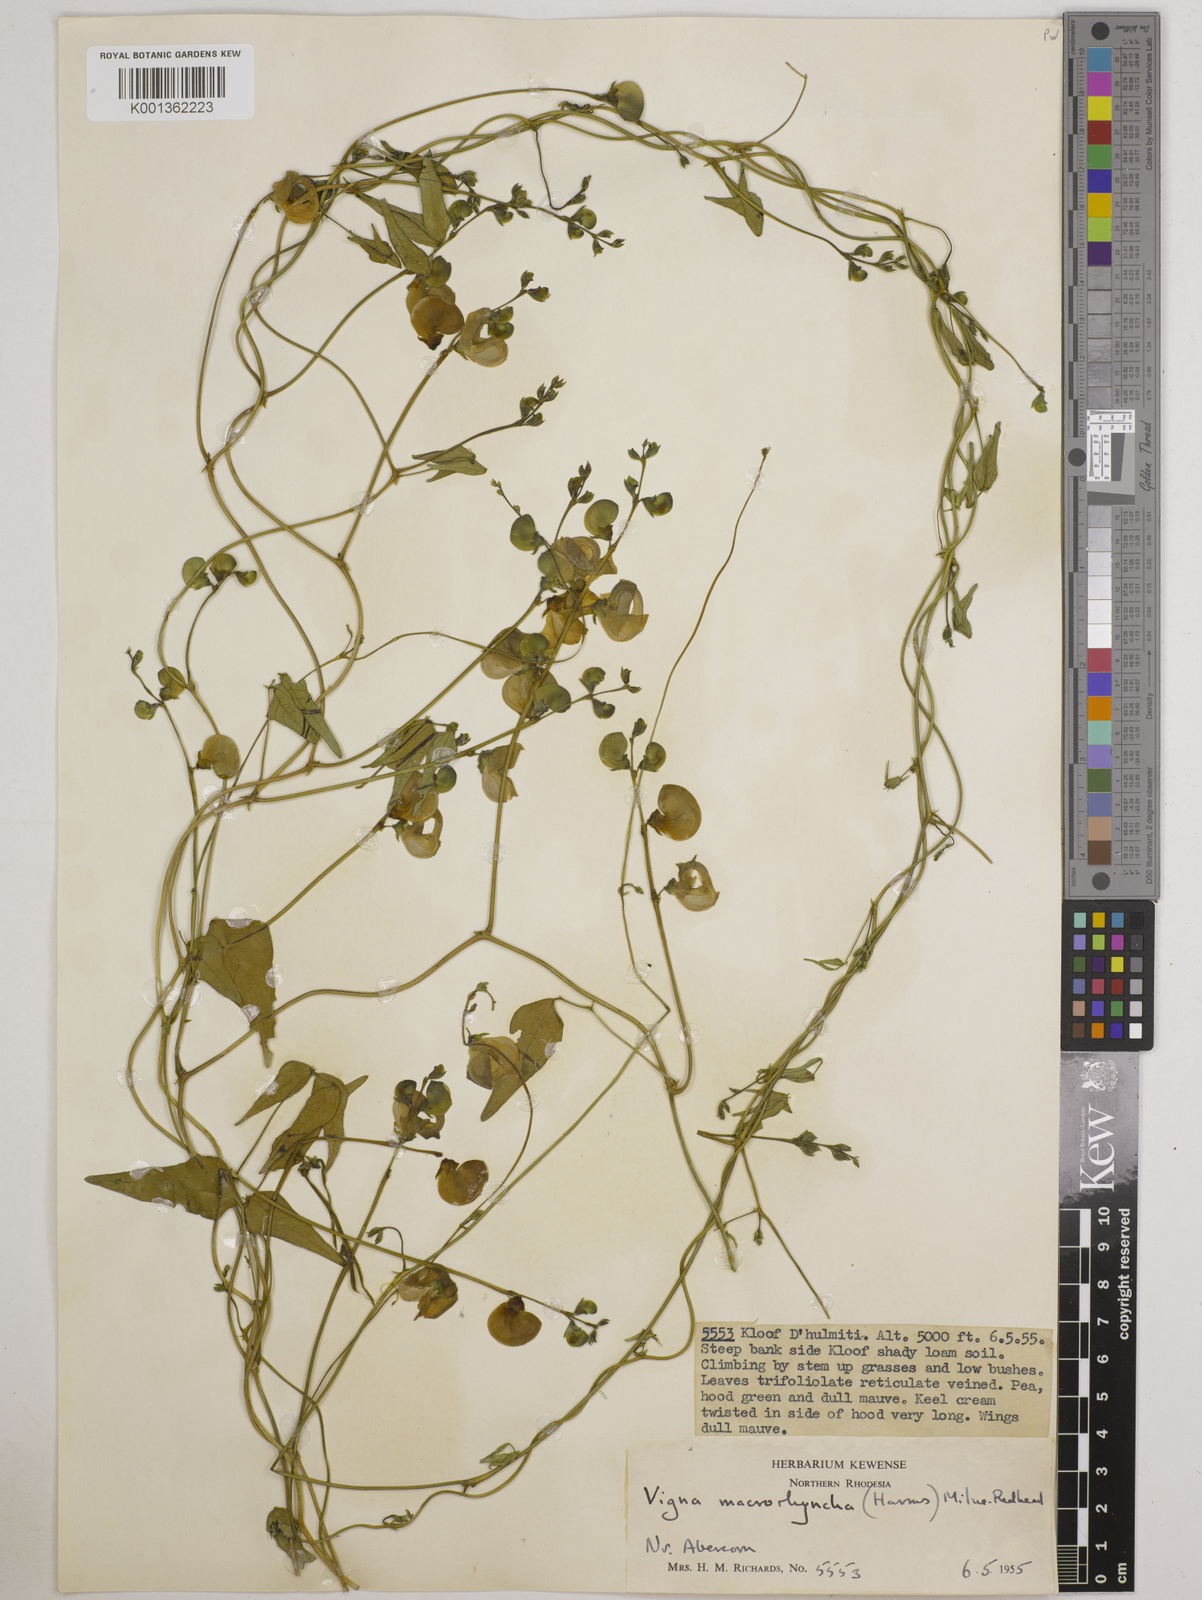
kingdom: Plantae
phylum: Tracheophyta
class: Magnoliopsida
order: Fabales
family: Fabaceae
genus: Wajira
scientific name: Wajira grahamiana
